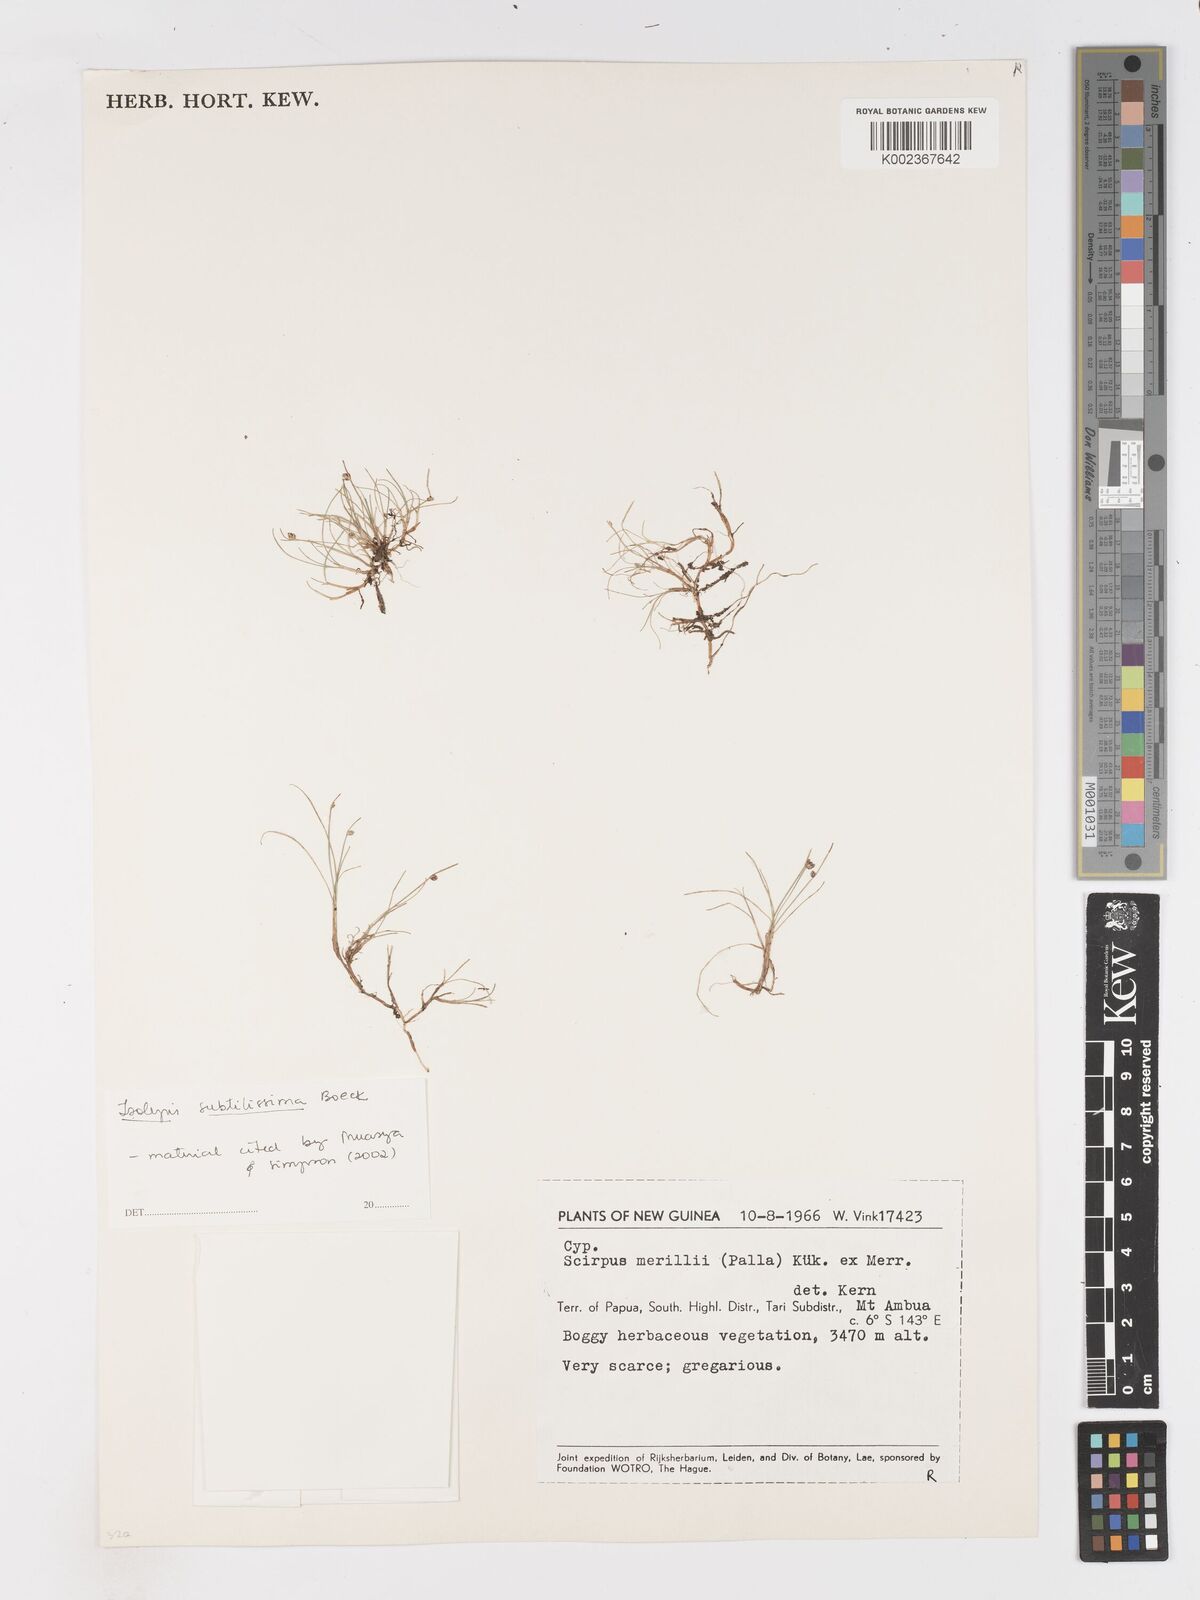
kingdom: Plantae
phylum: Tracheophyta
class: Liliopsida
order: Poales
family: Cyperaceae
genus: Isolepis
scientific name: Isolepis subtilissima
